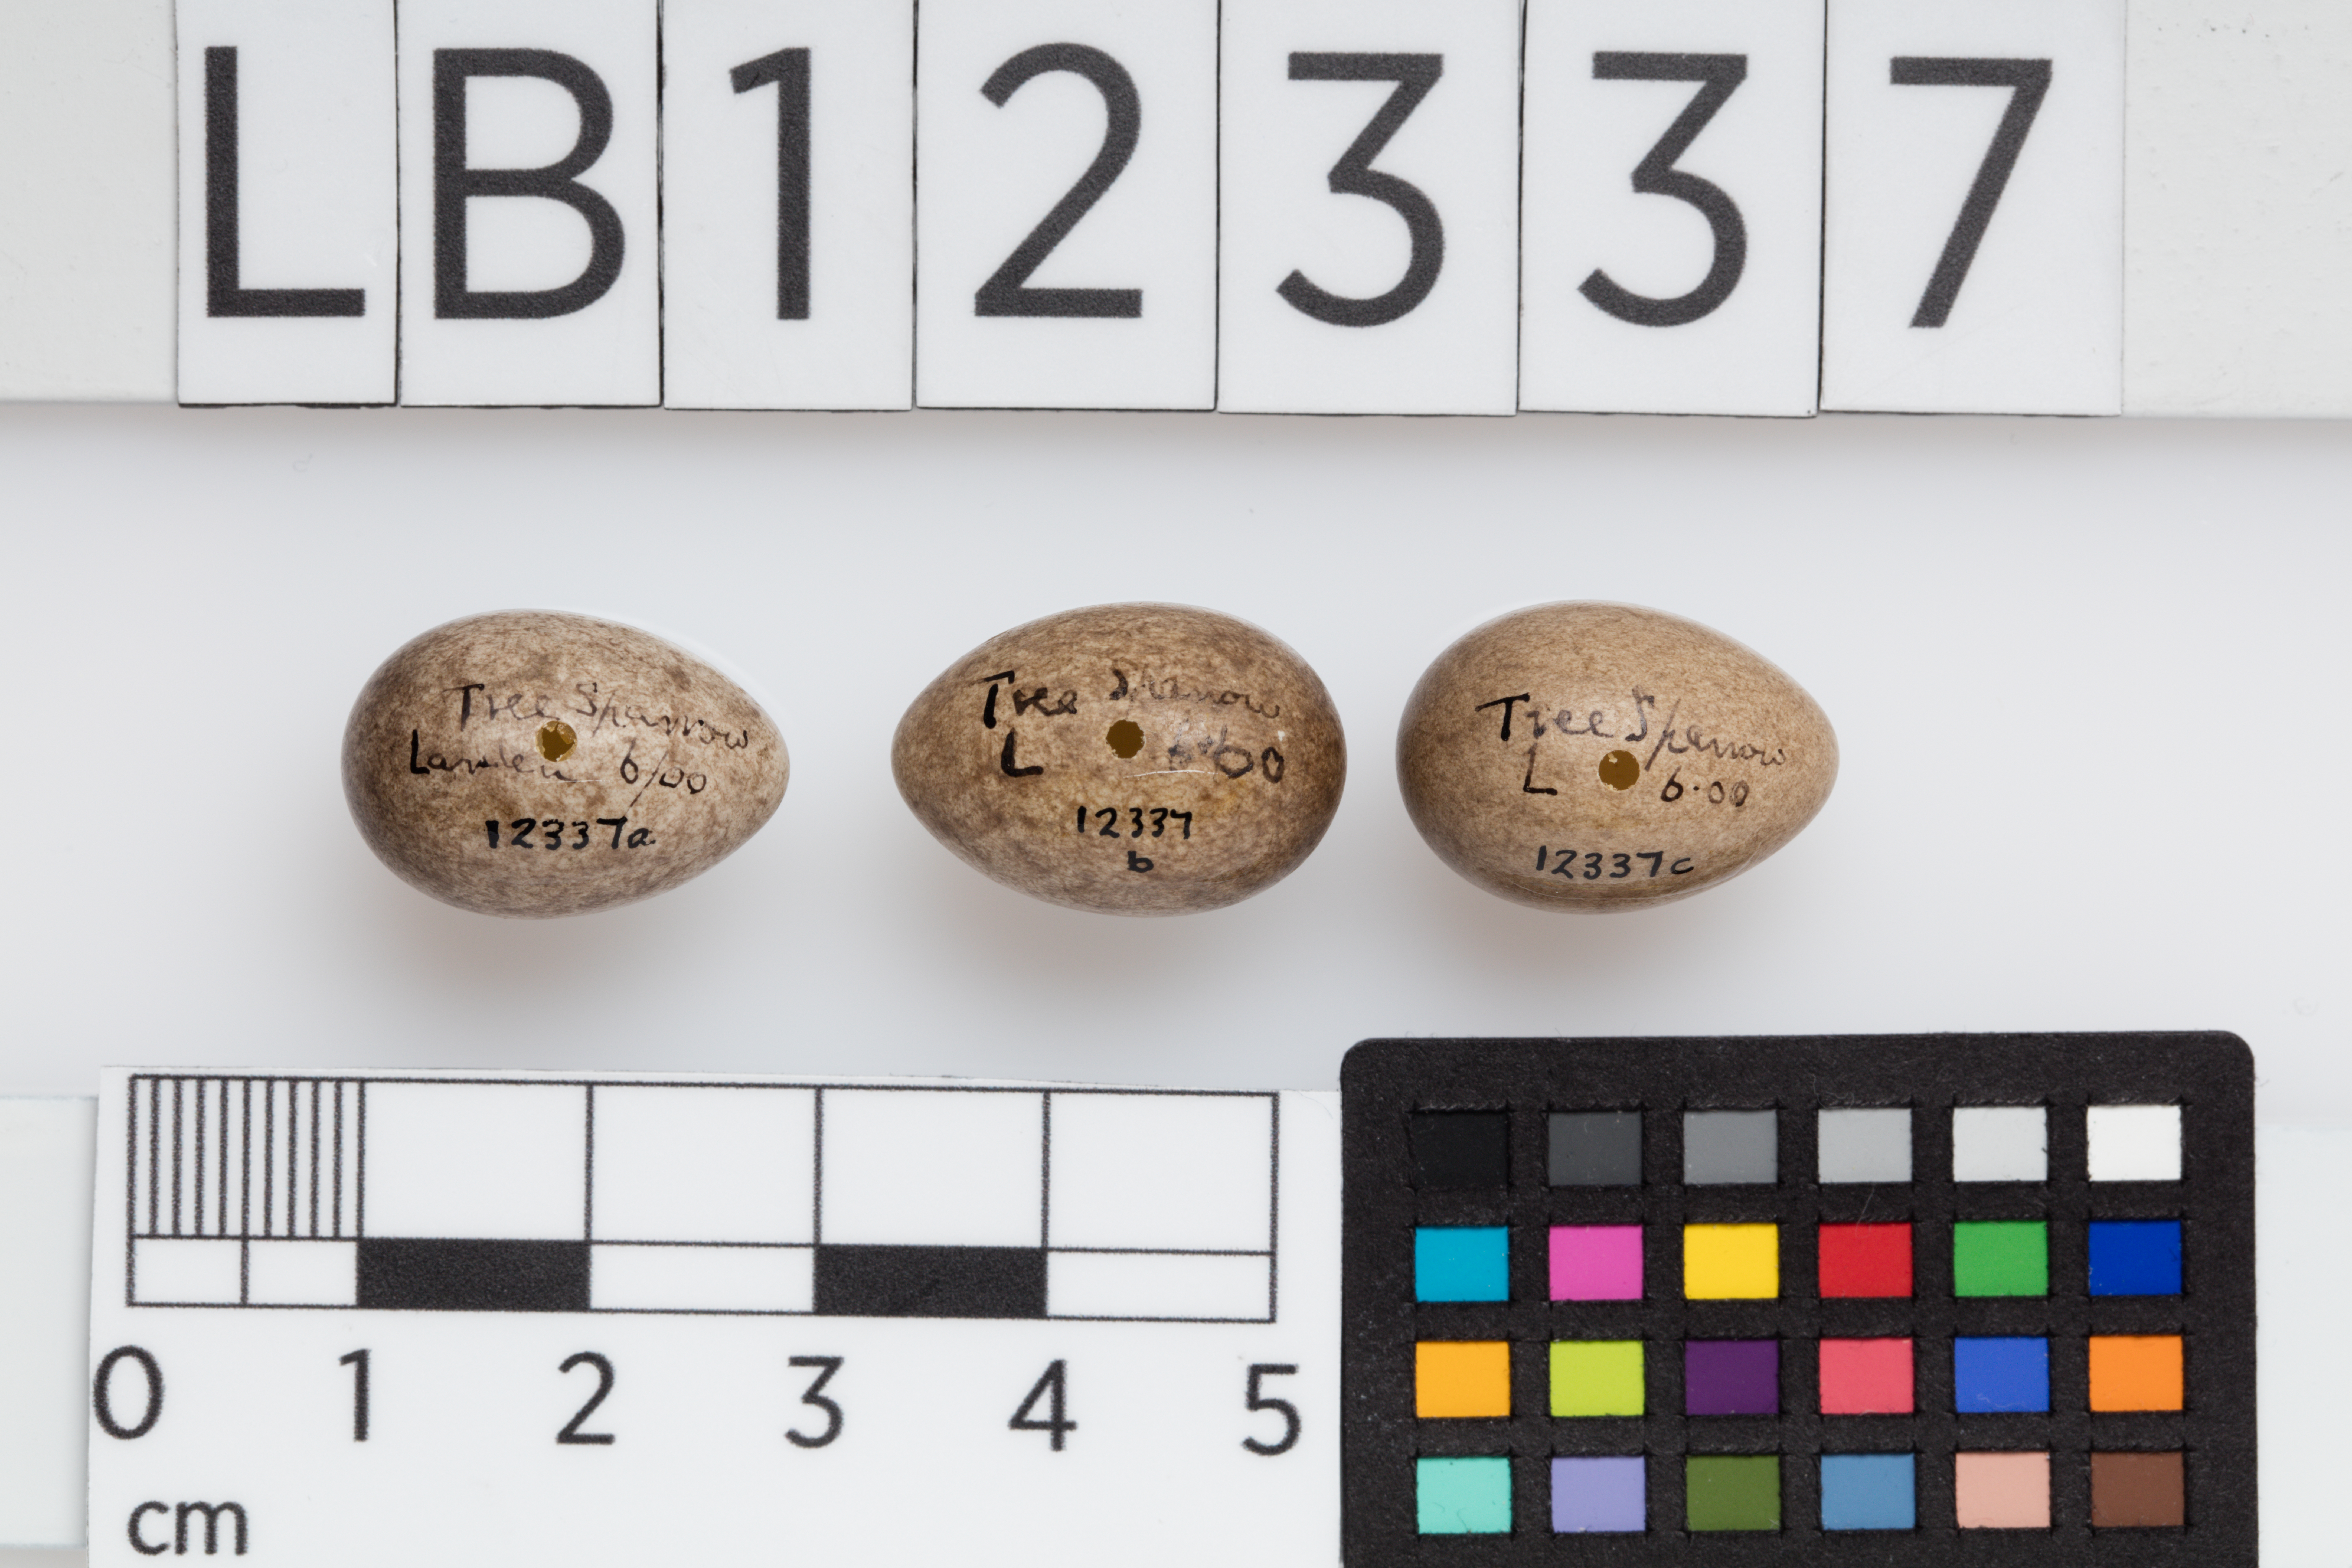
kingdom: Animalia
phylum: Chordata
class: Aves
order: Passeriformes
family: Passeridae
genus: Passer
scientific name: Passer montanus
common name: Eurasian tree sparrow
